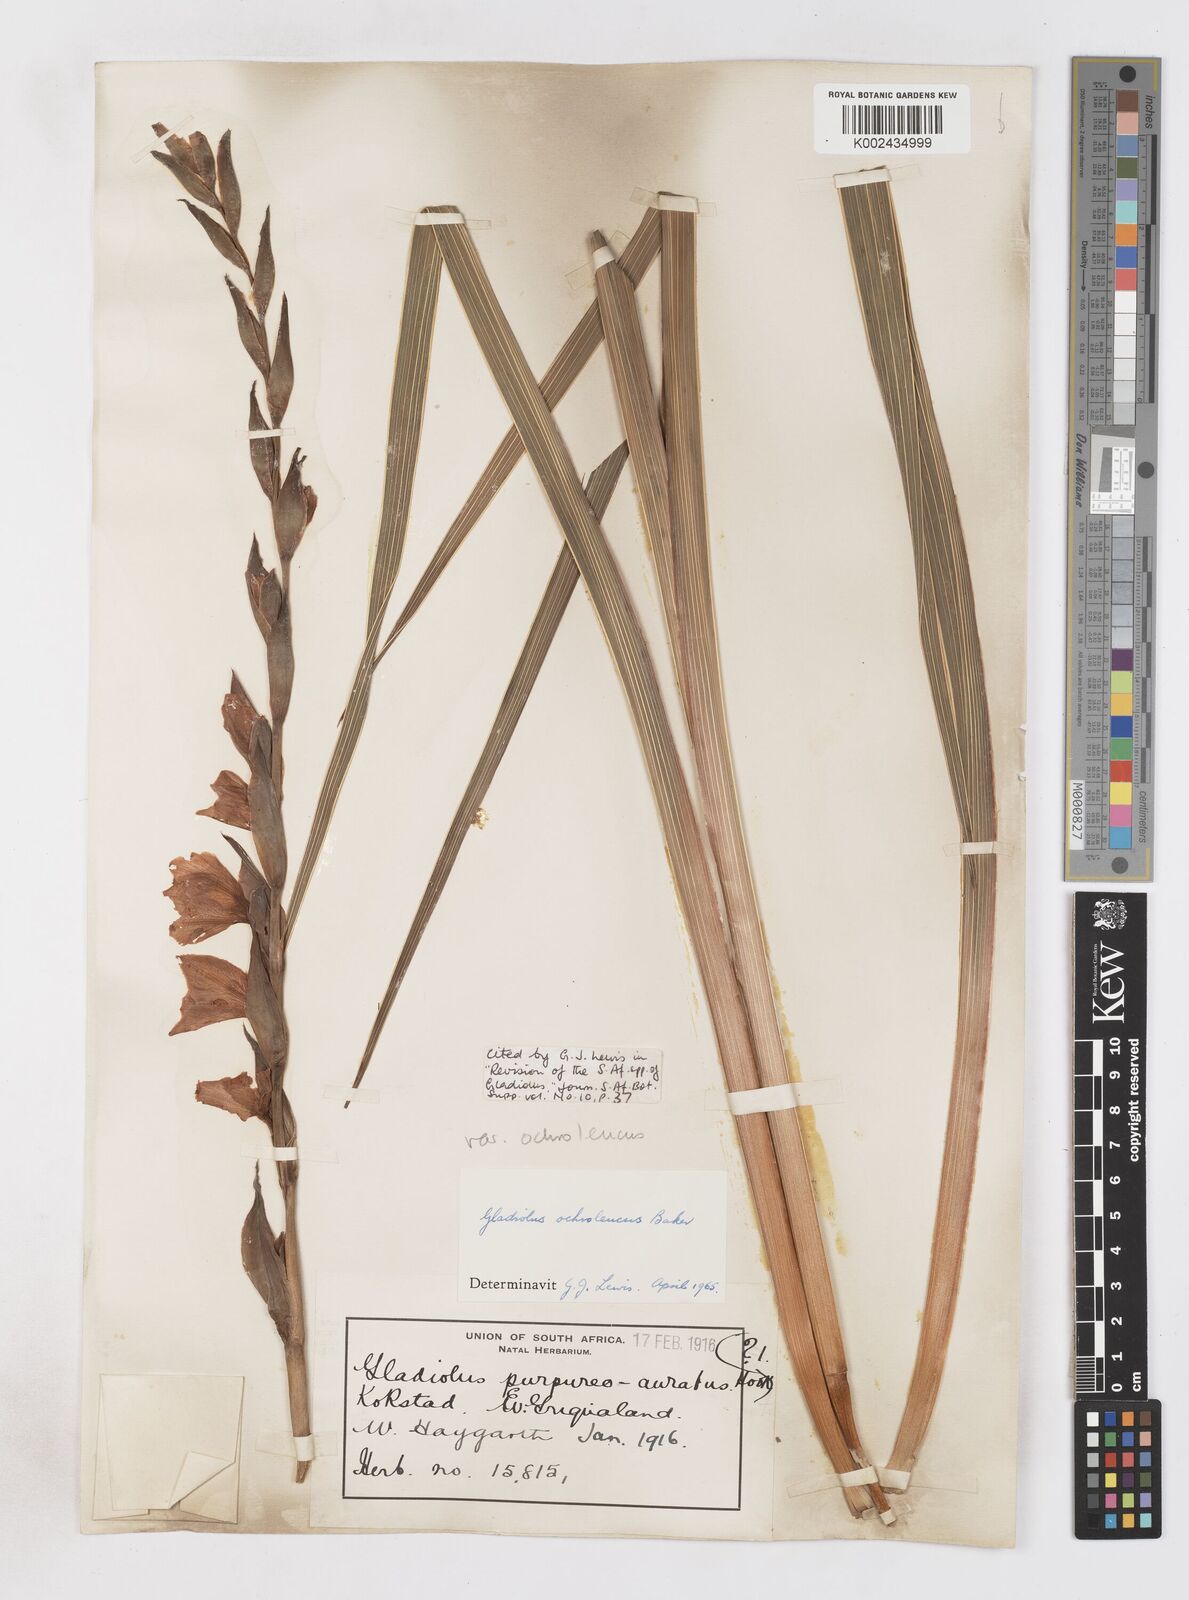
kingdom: Plantae
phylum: Tracheophyta
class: Liliopsida
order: Asparagales
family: Iridaceae
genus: Gladiolus
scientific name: Gladiolus ochroleucus
